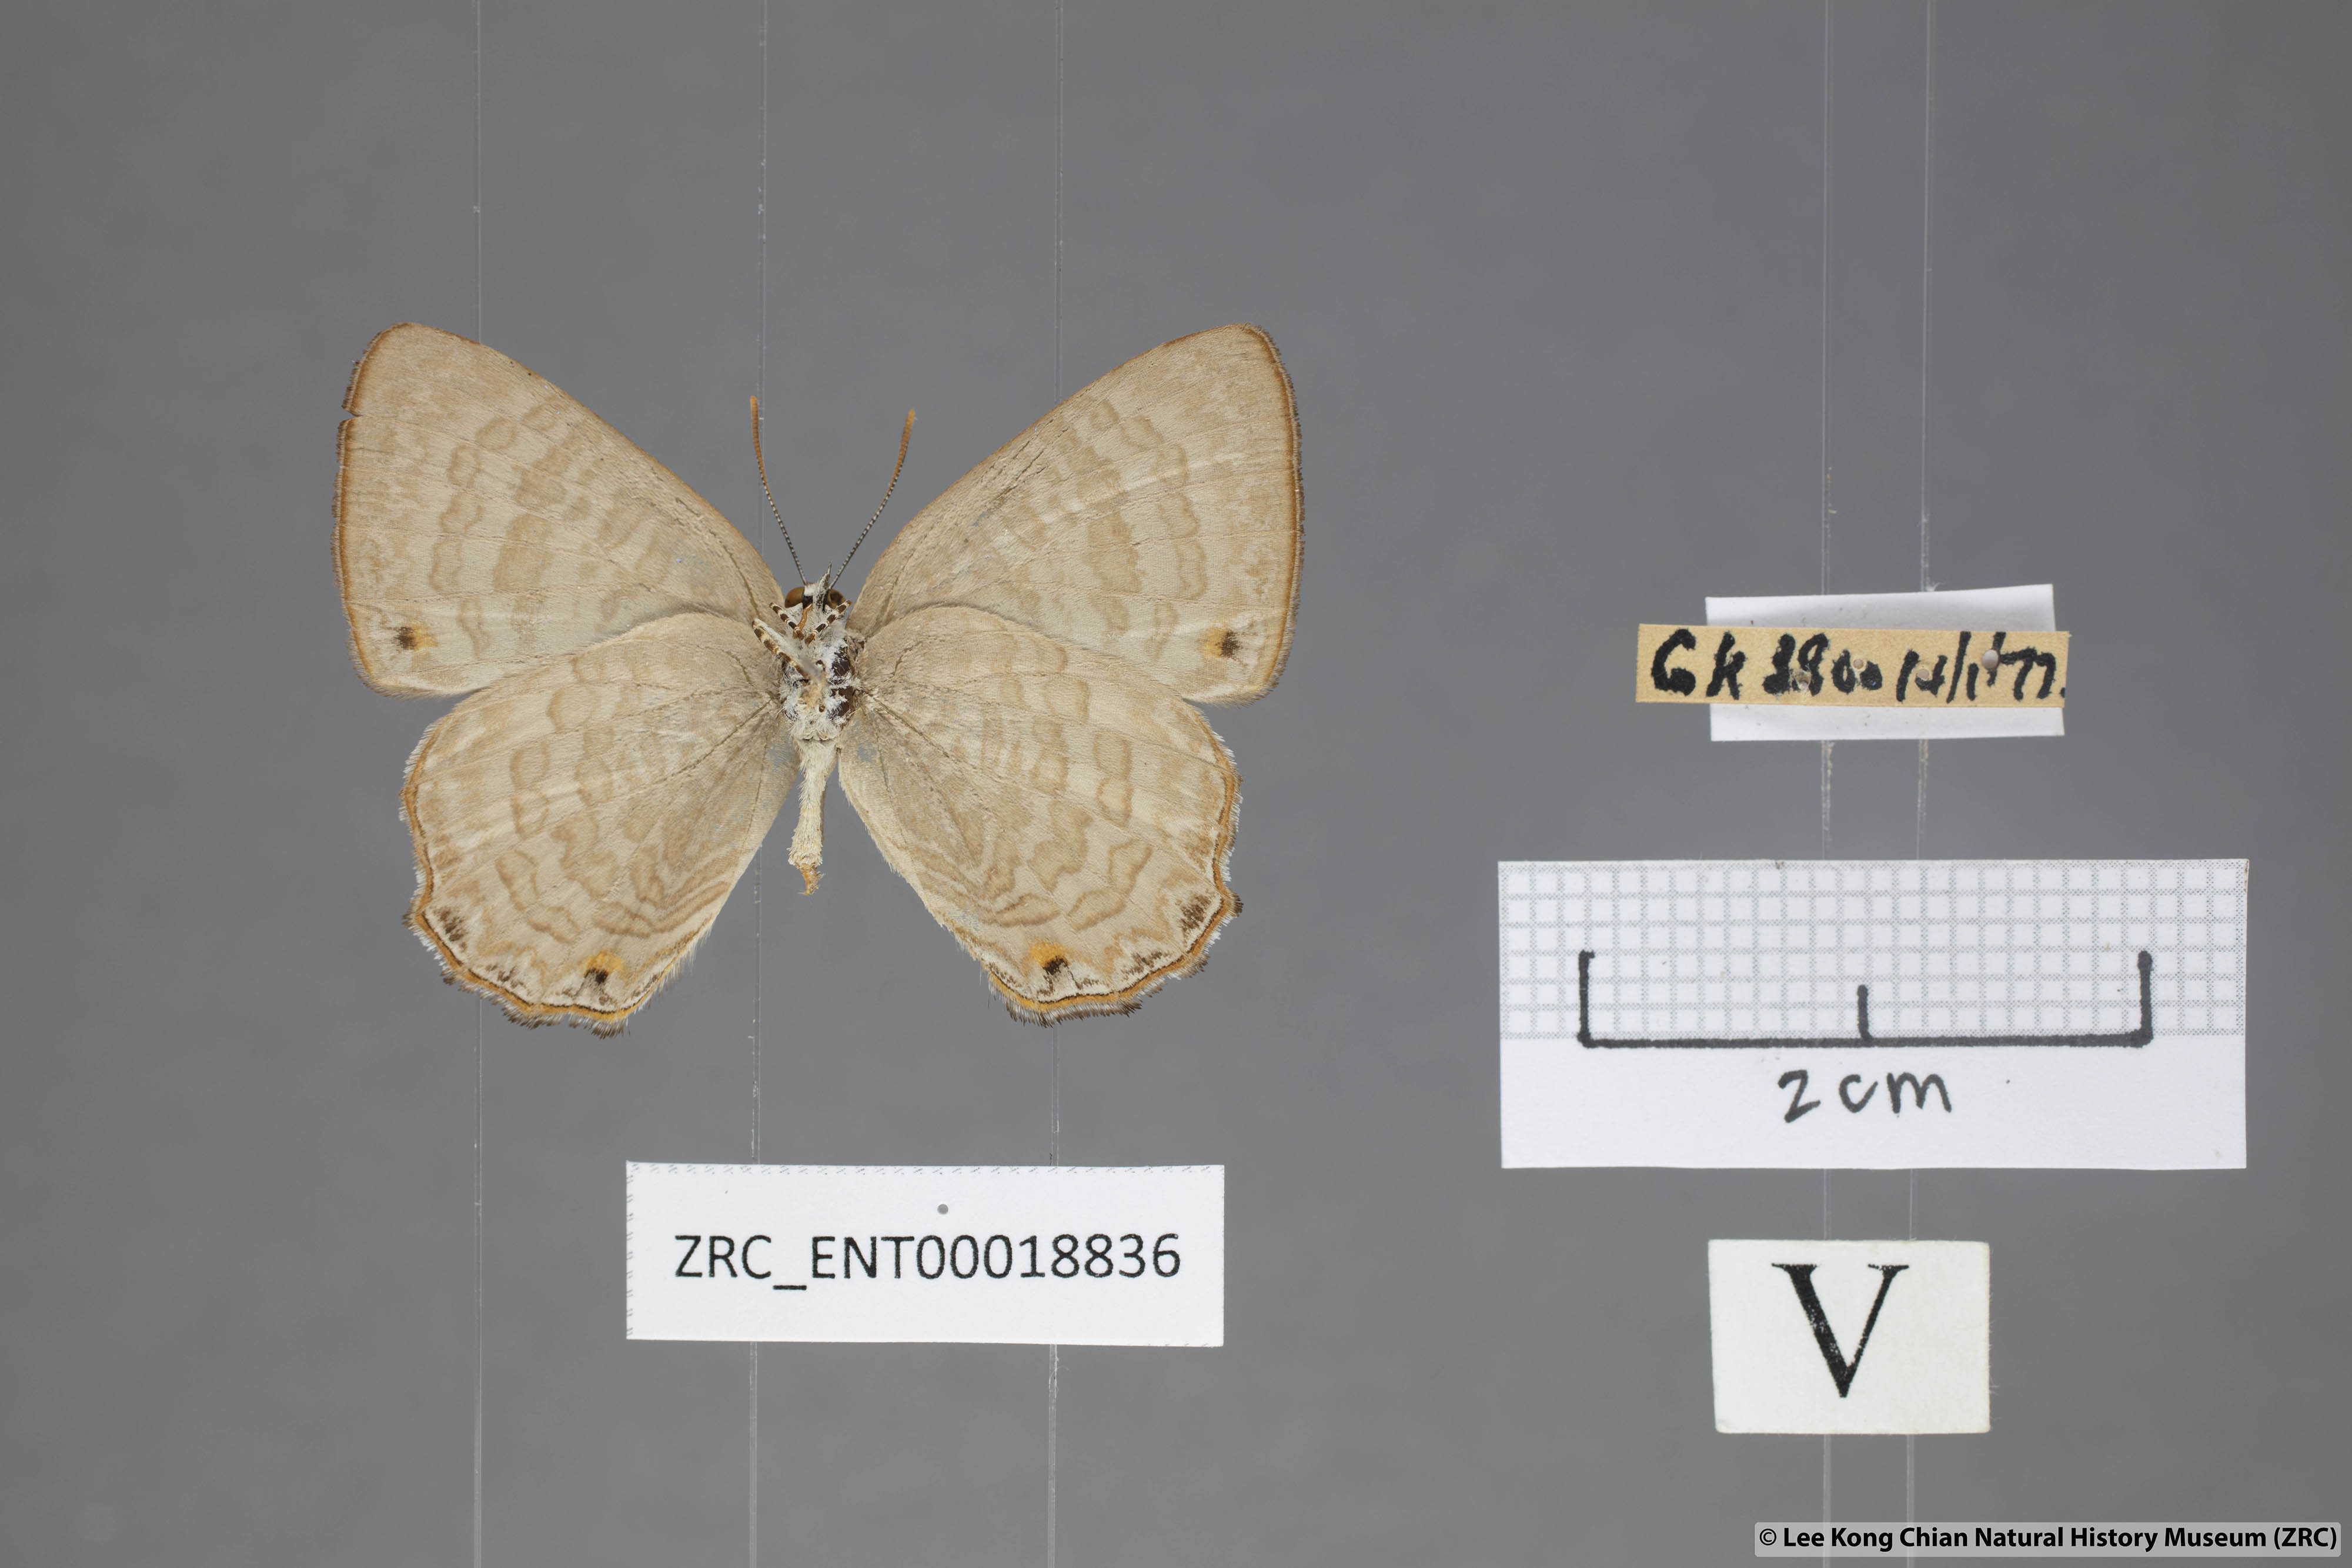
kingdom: Animalia
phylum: Arthropoda
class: Insecta
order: Lepidoptera
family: Lycaenidae
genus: Poritia
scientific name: Poritia promula
